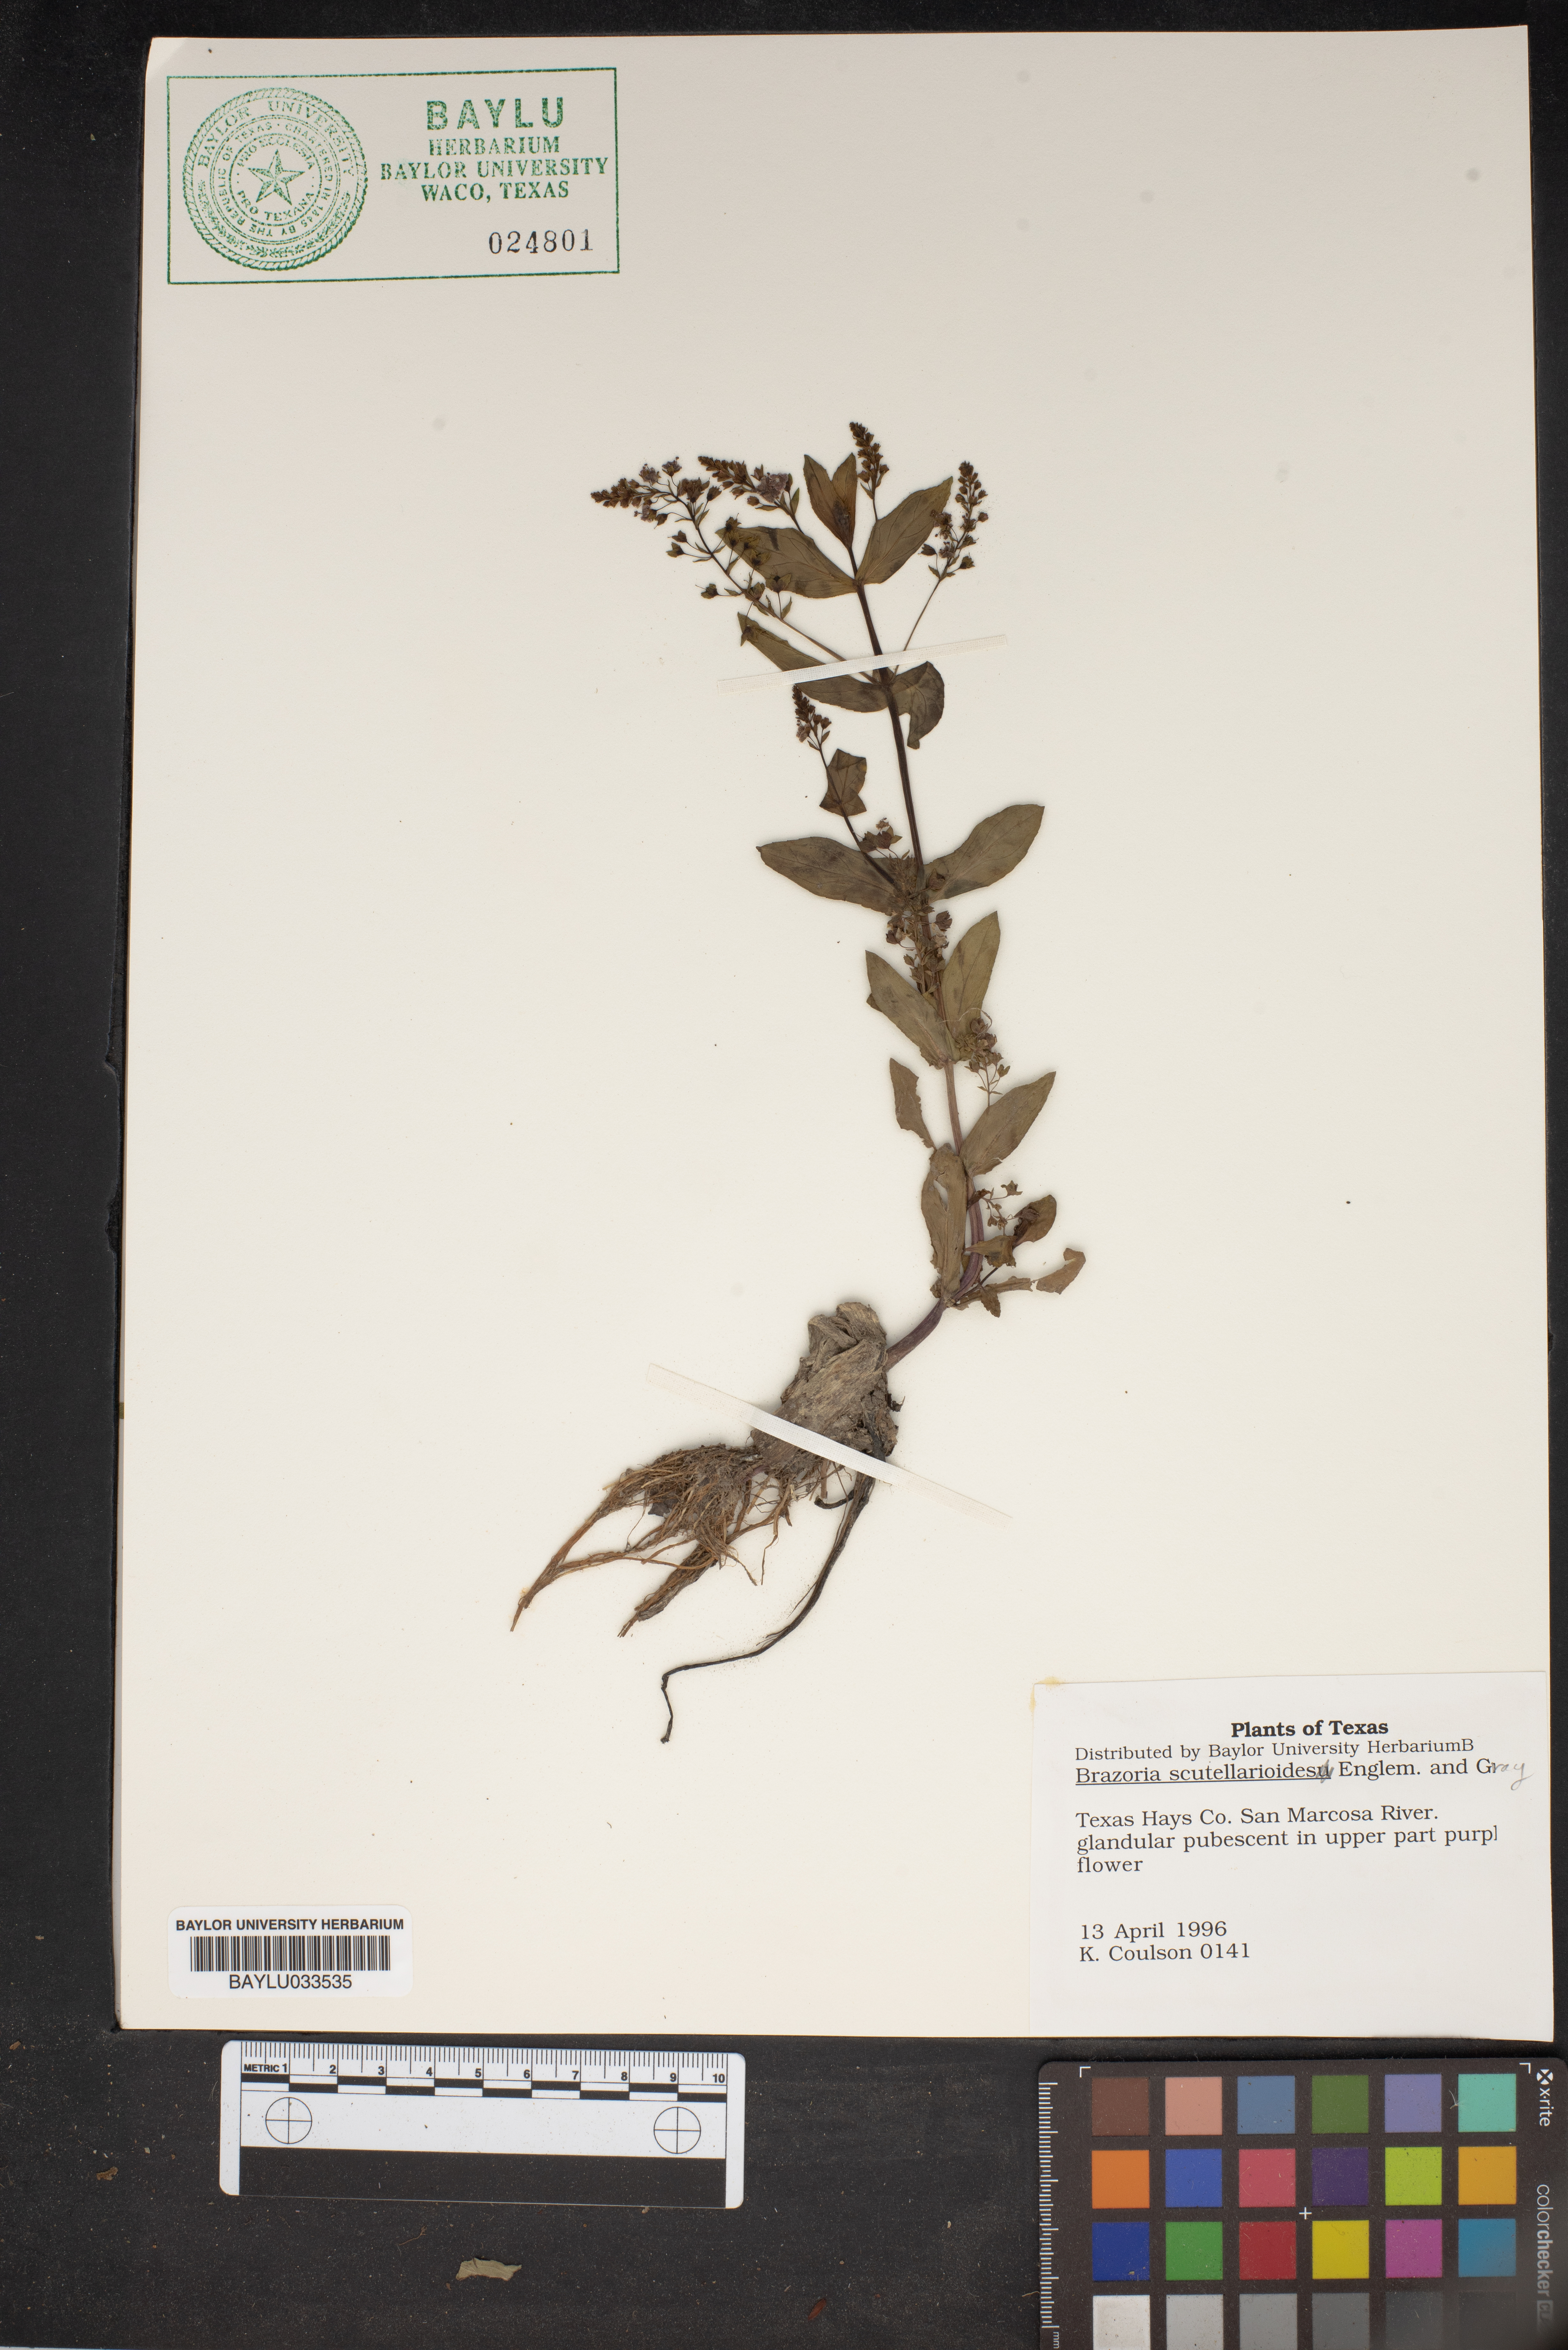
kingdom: Plantae
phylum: Tracheophyta
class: Magnoliopsida
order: Lamiales
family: Lamiaceae
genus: Warnockia
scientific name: Warnockia scutellarioides
